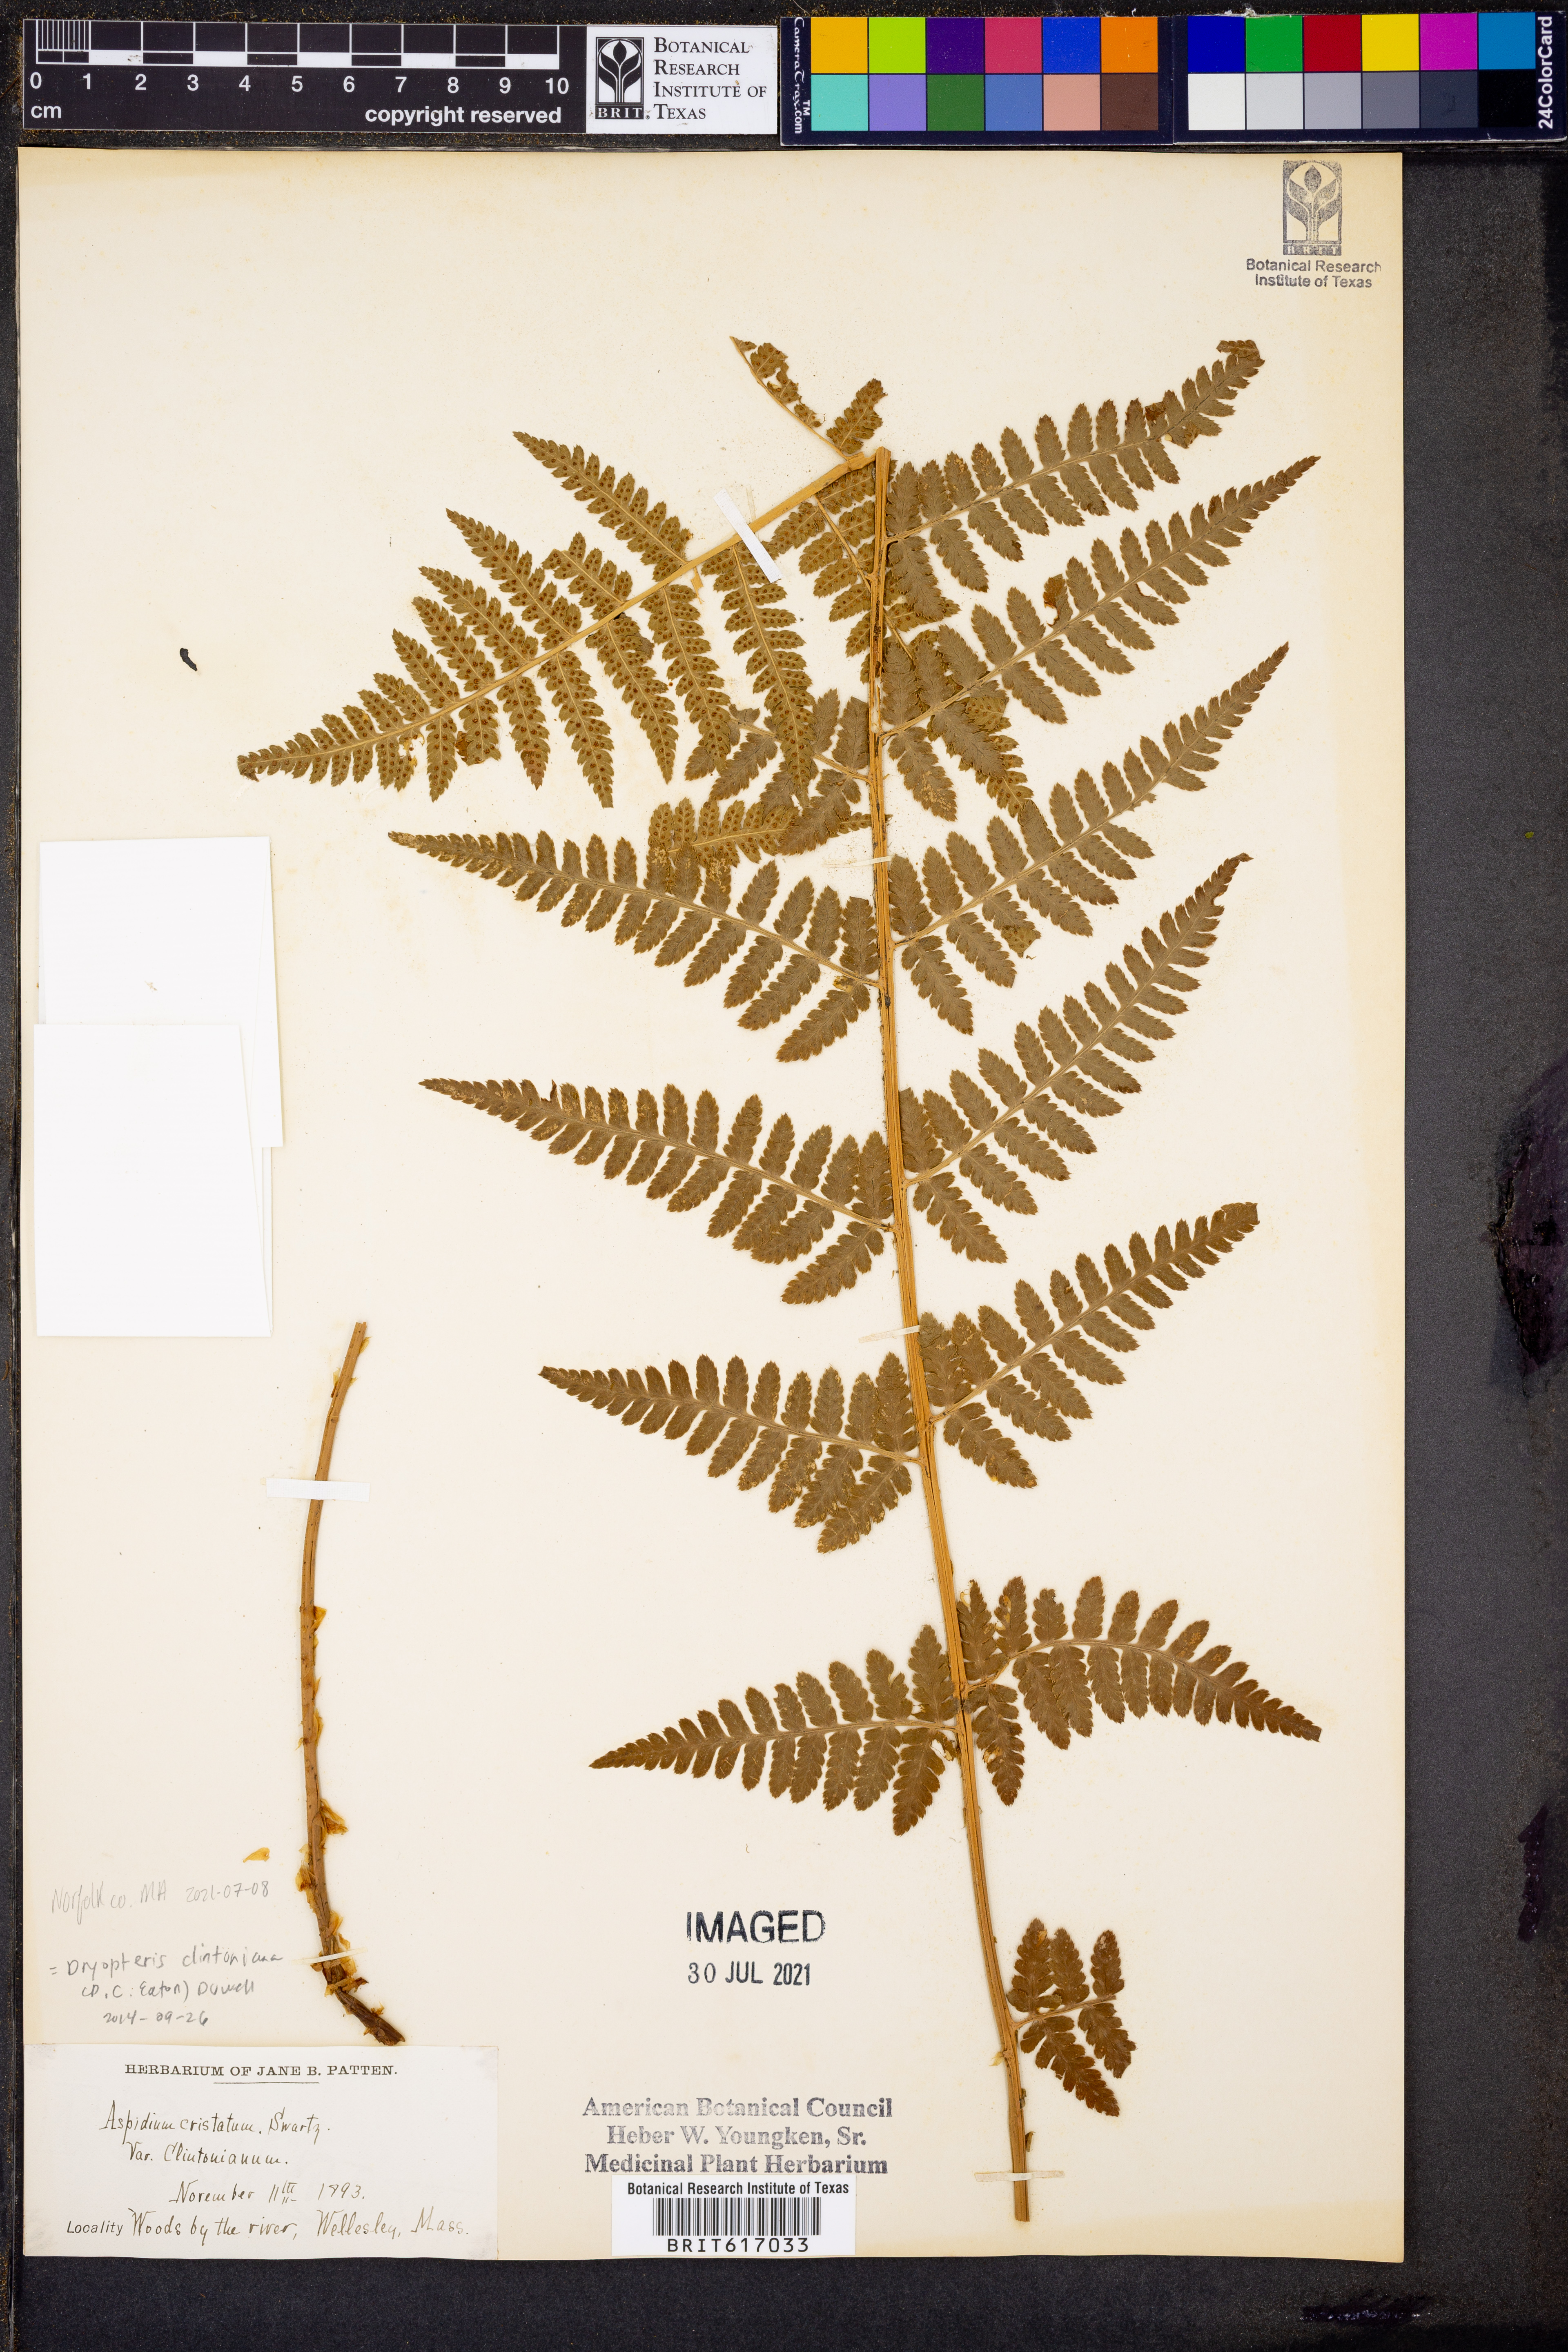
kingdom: Plantae
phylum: Tracheophyta
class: Polypodiopsida
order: Polypodiales
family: Dryopteridaceae
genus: Dryopteris
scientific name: Dryopteris clintoniana
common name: Clinton's wood fern
